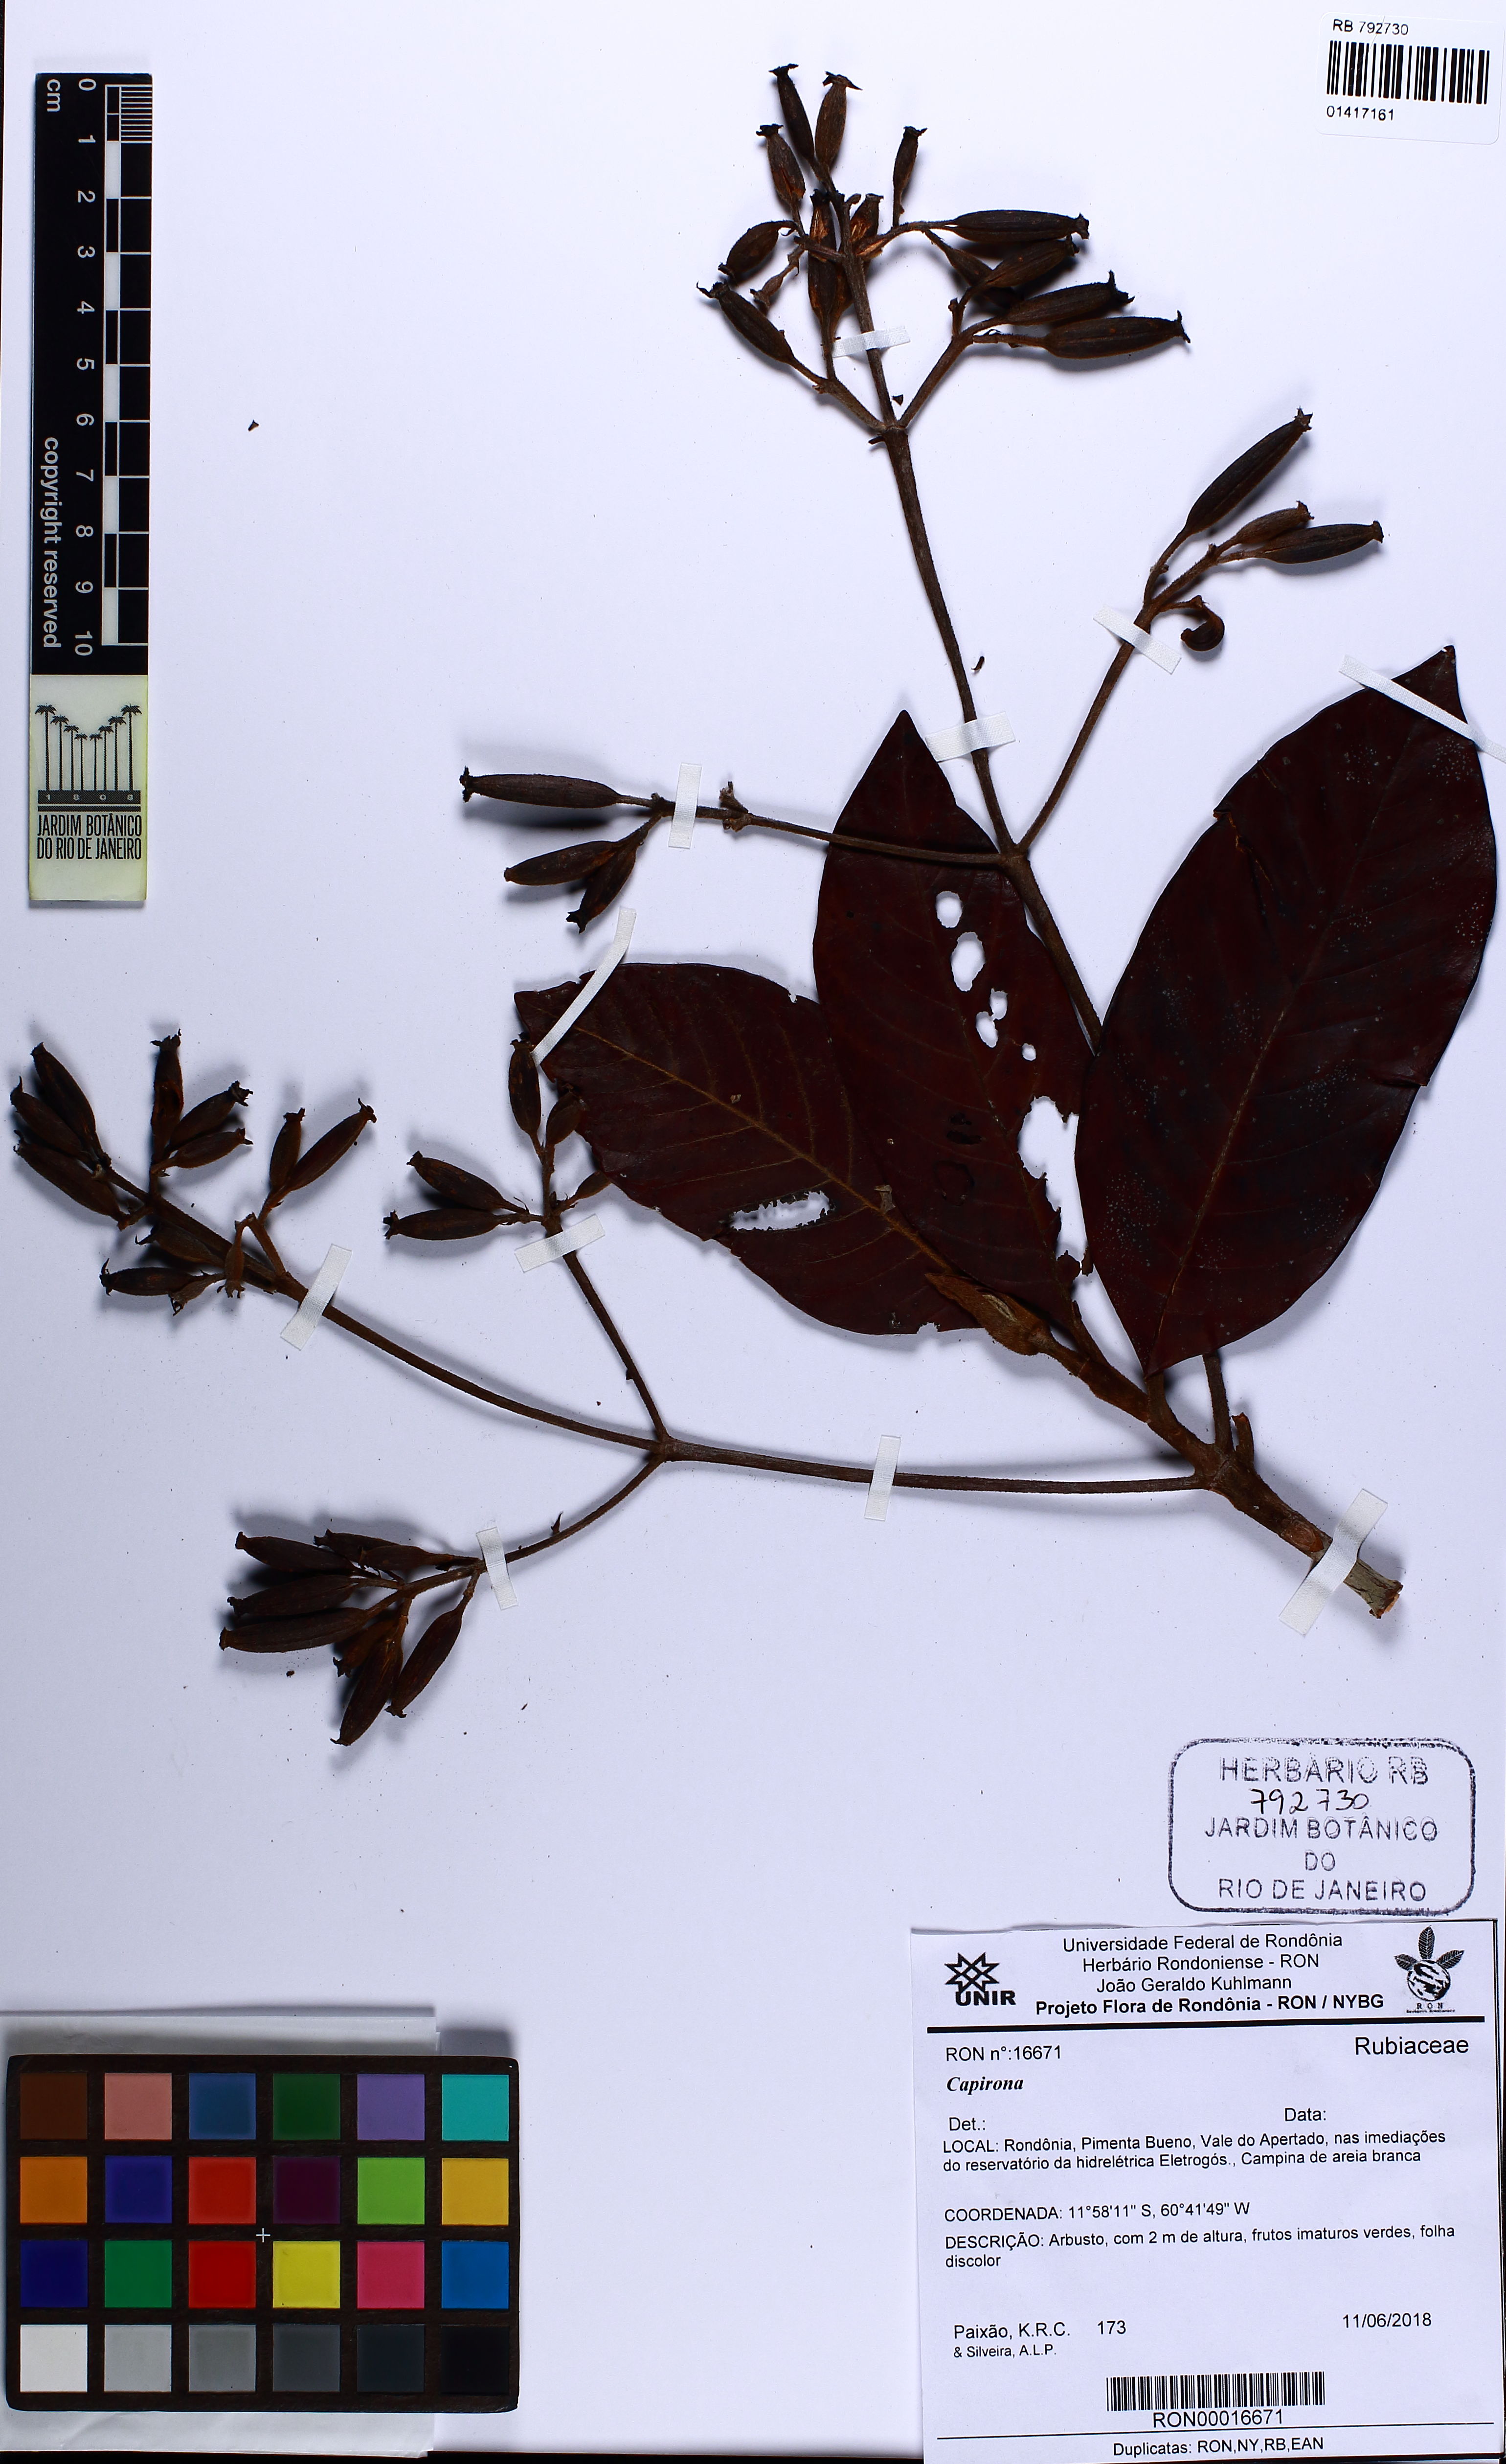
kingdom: Plantae
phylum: Tracheophyta
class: Magnoliopsida
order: Gentianales
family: Rubiaceae
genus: Capirona
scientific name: Capirona
